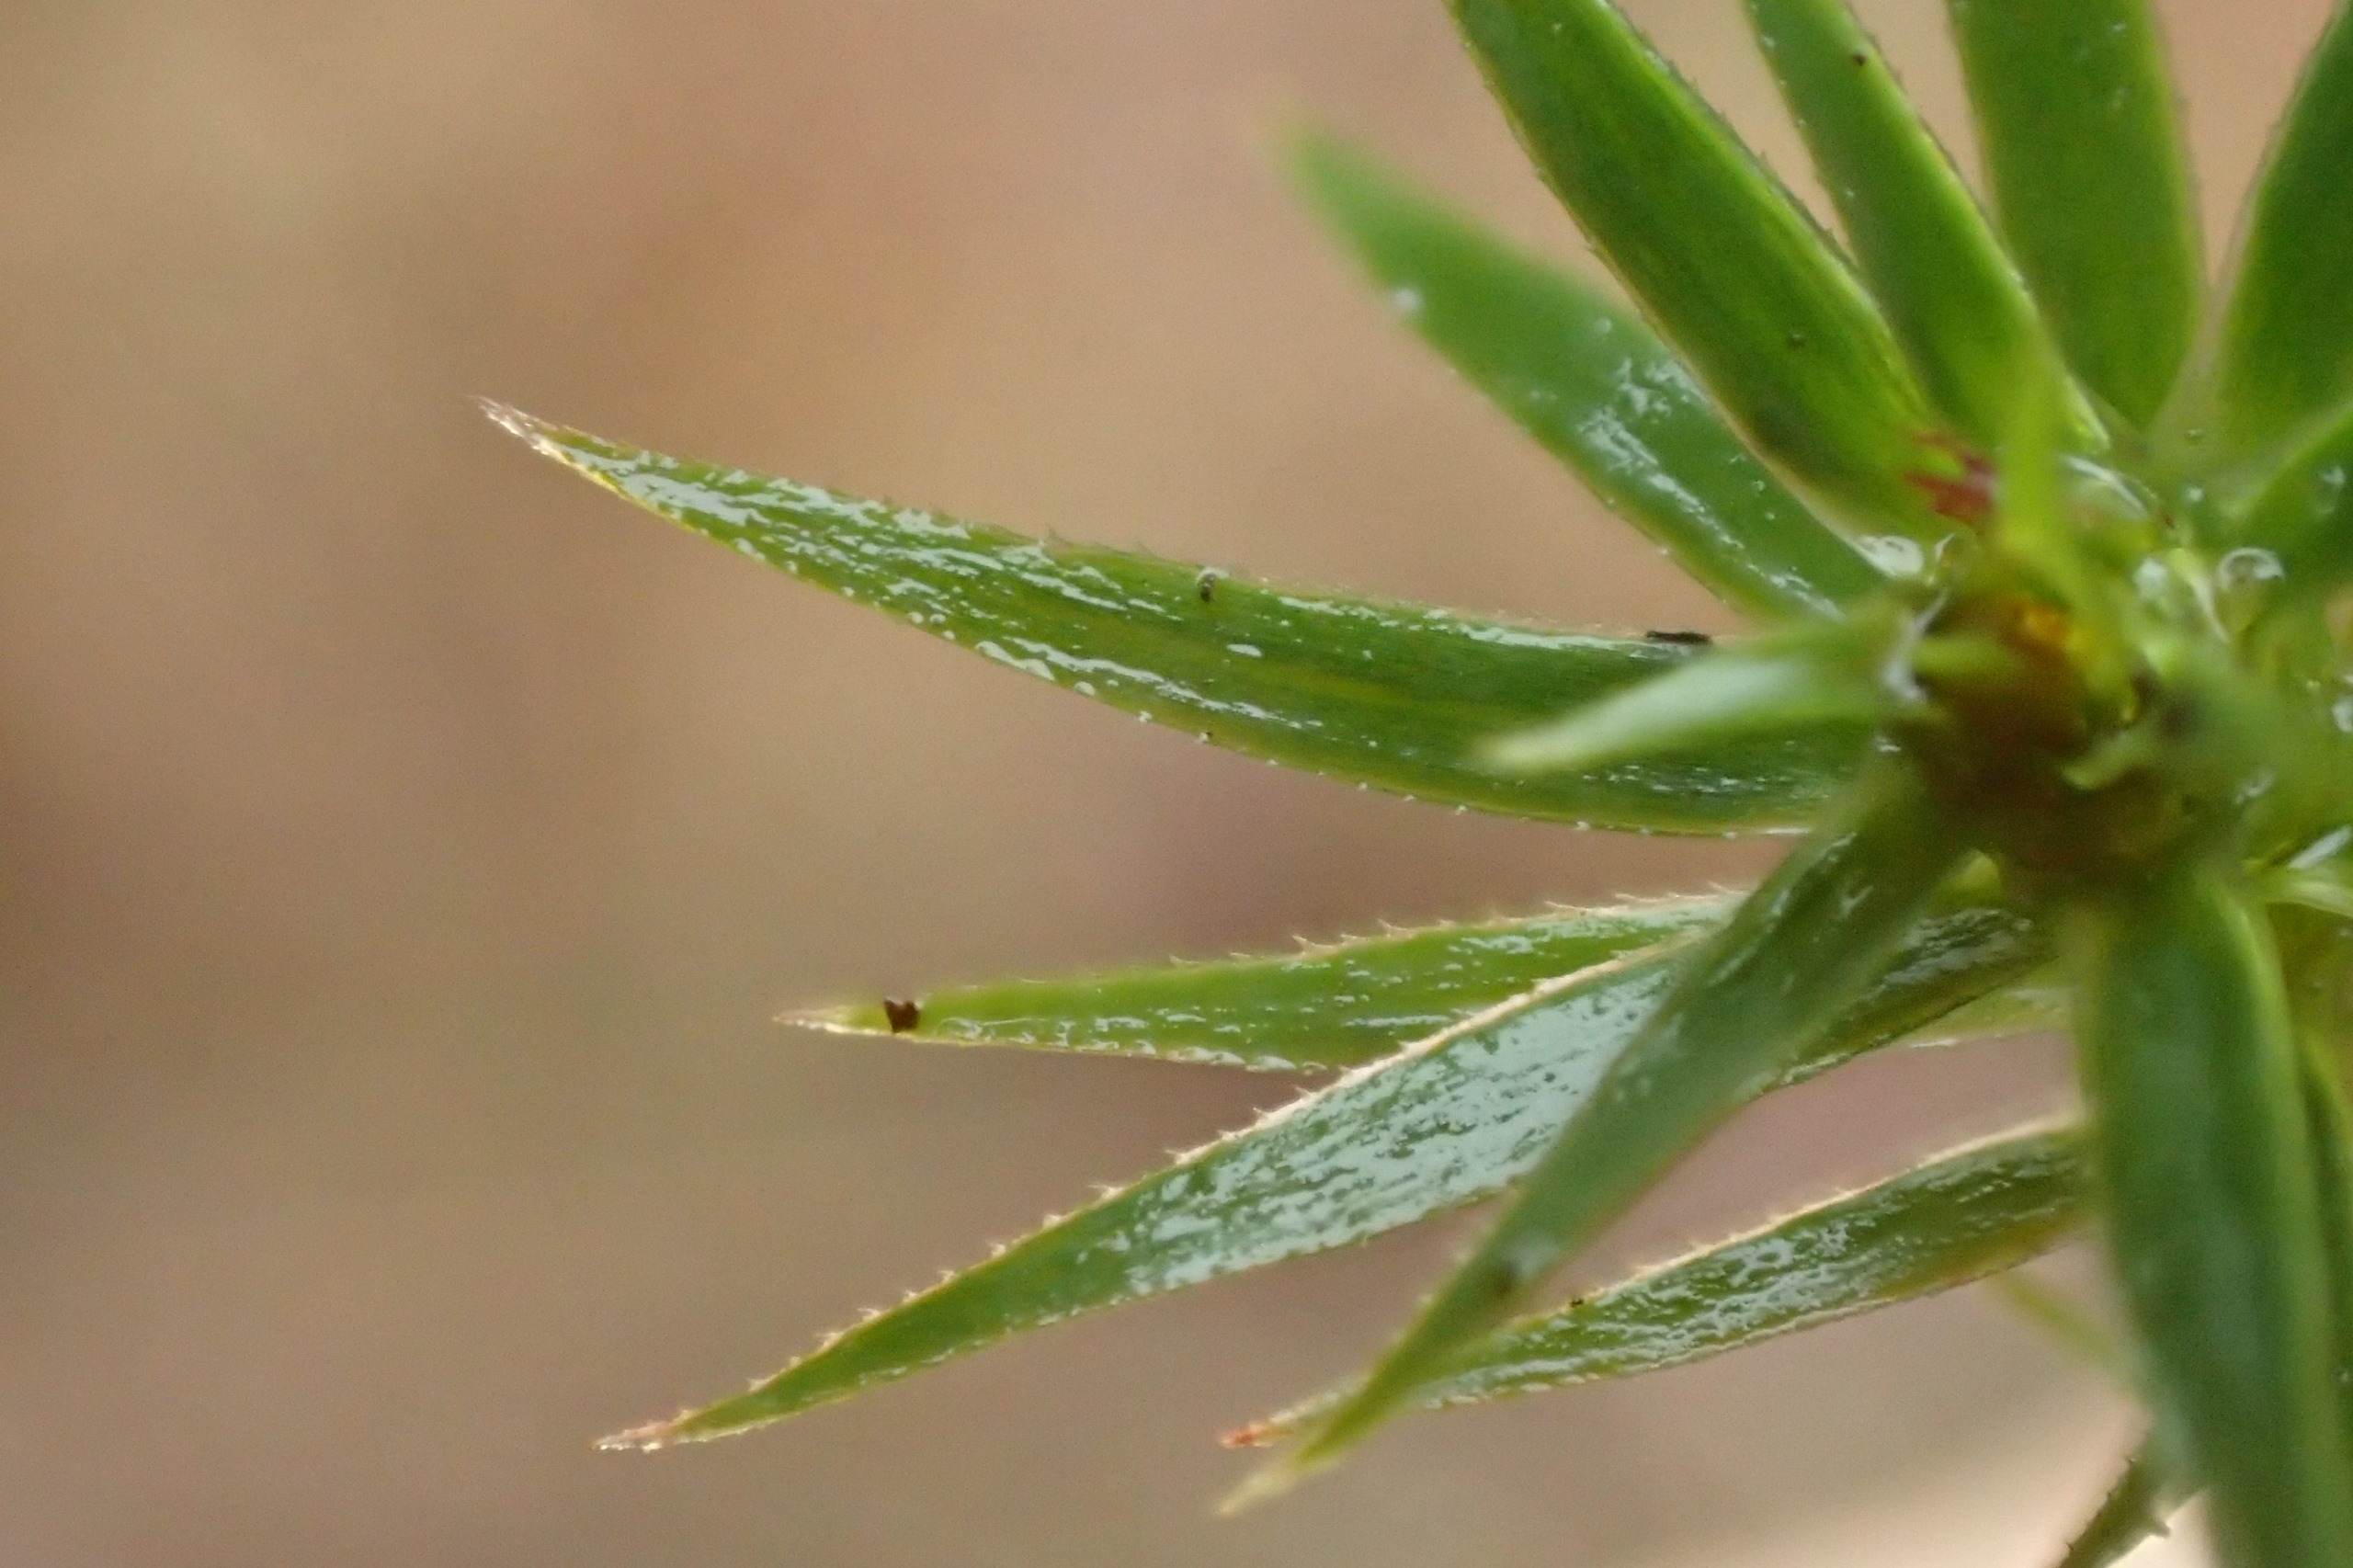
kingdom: Plantae
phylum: Bryophyta
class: Polytrichopsida
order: Polytrichales
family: Polytrichaceae
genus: Pogonatum
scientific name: Pogonatum urnigerum
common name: Stor urnekapsel
